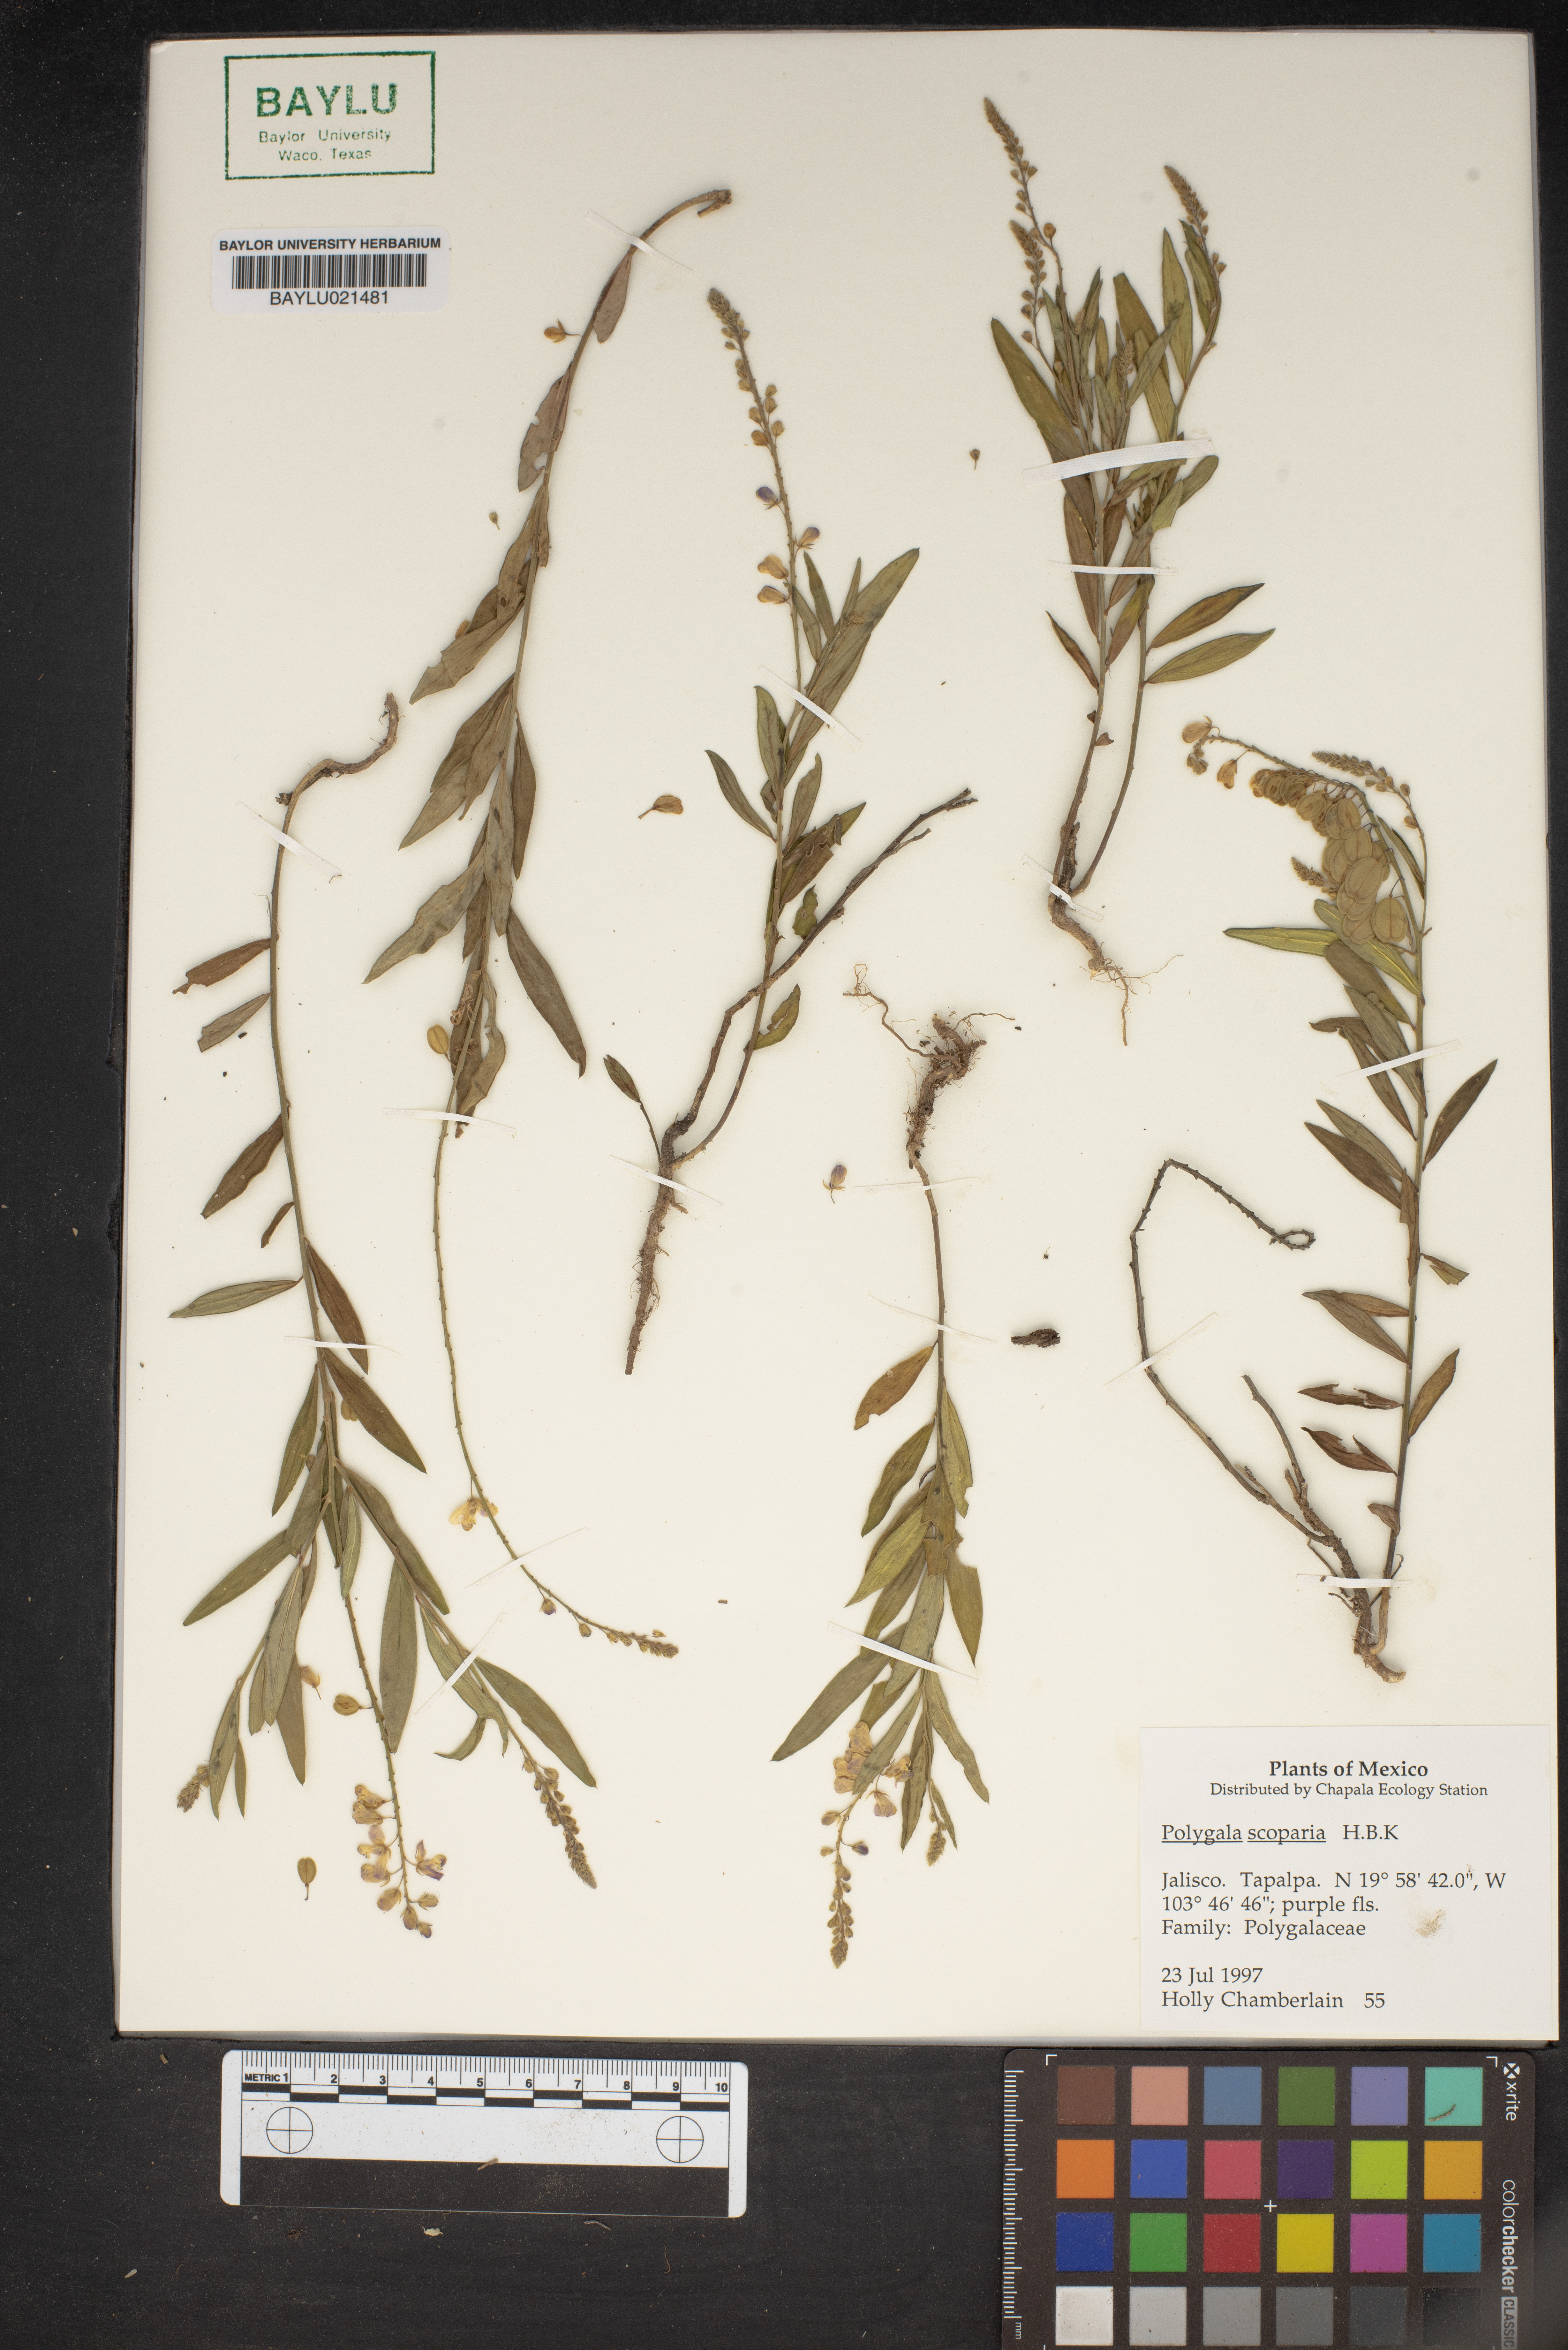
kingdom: Plantae
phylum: Tracheophyta
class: Magnoliopsida
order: Fabales
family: Polygalaceae
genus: Polygala
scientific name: Polygala
